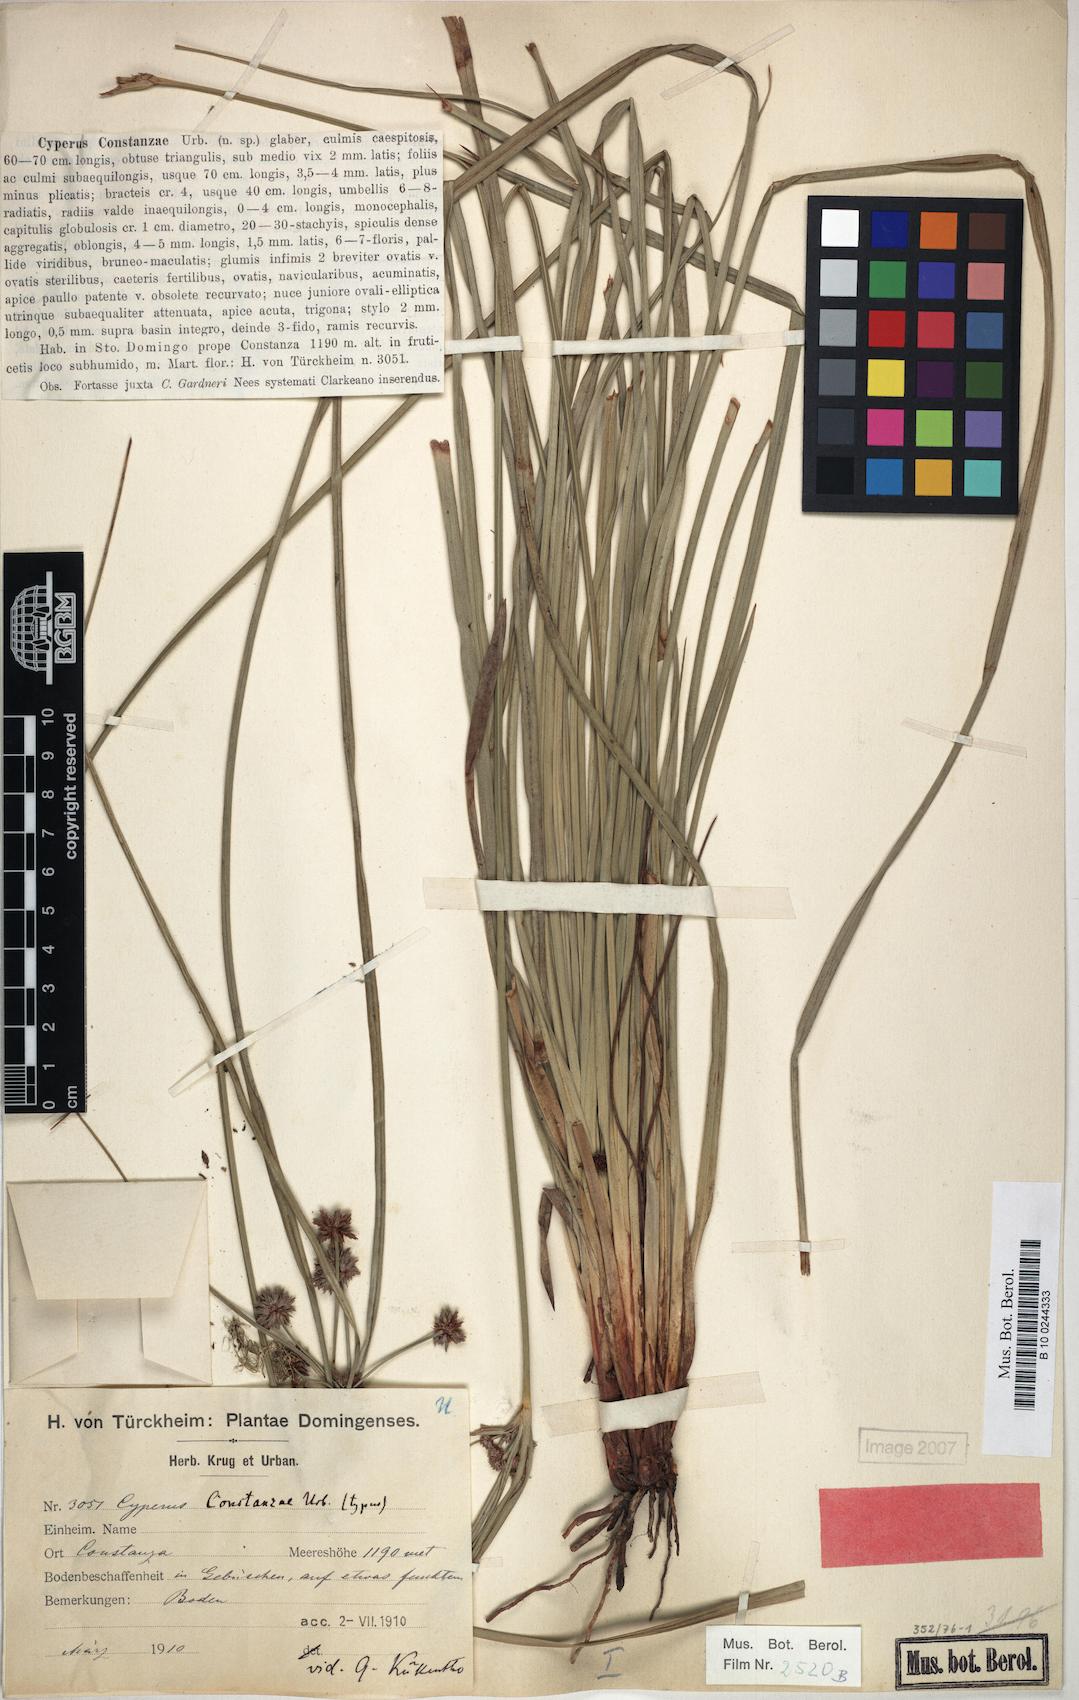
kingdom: Plantae
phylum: Tracheophyta
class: Liliopsida
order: Poales
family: Cyperaceae
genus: Cyperus
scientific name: Cyperus constanzae
